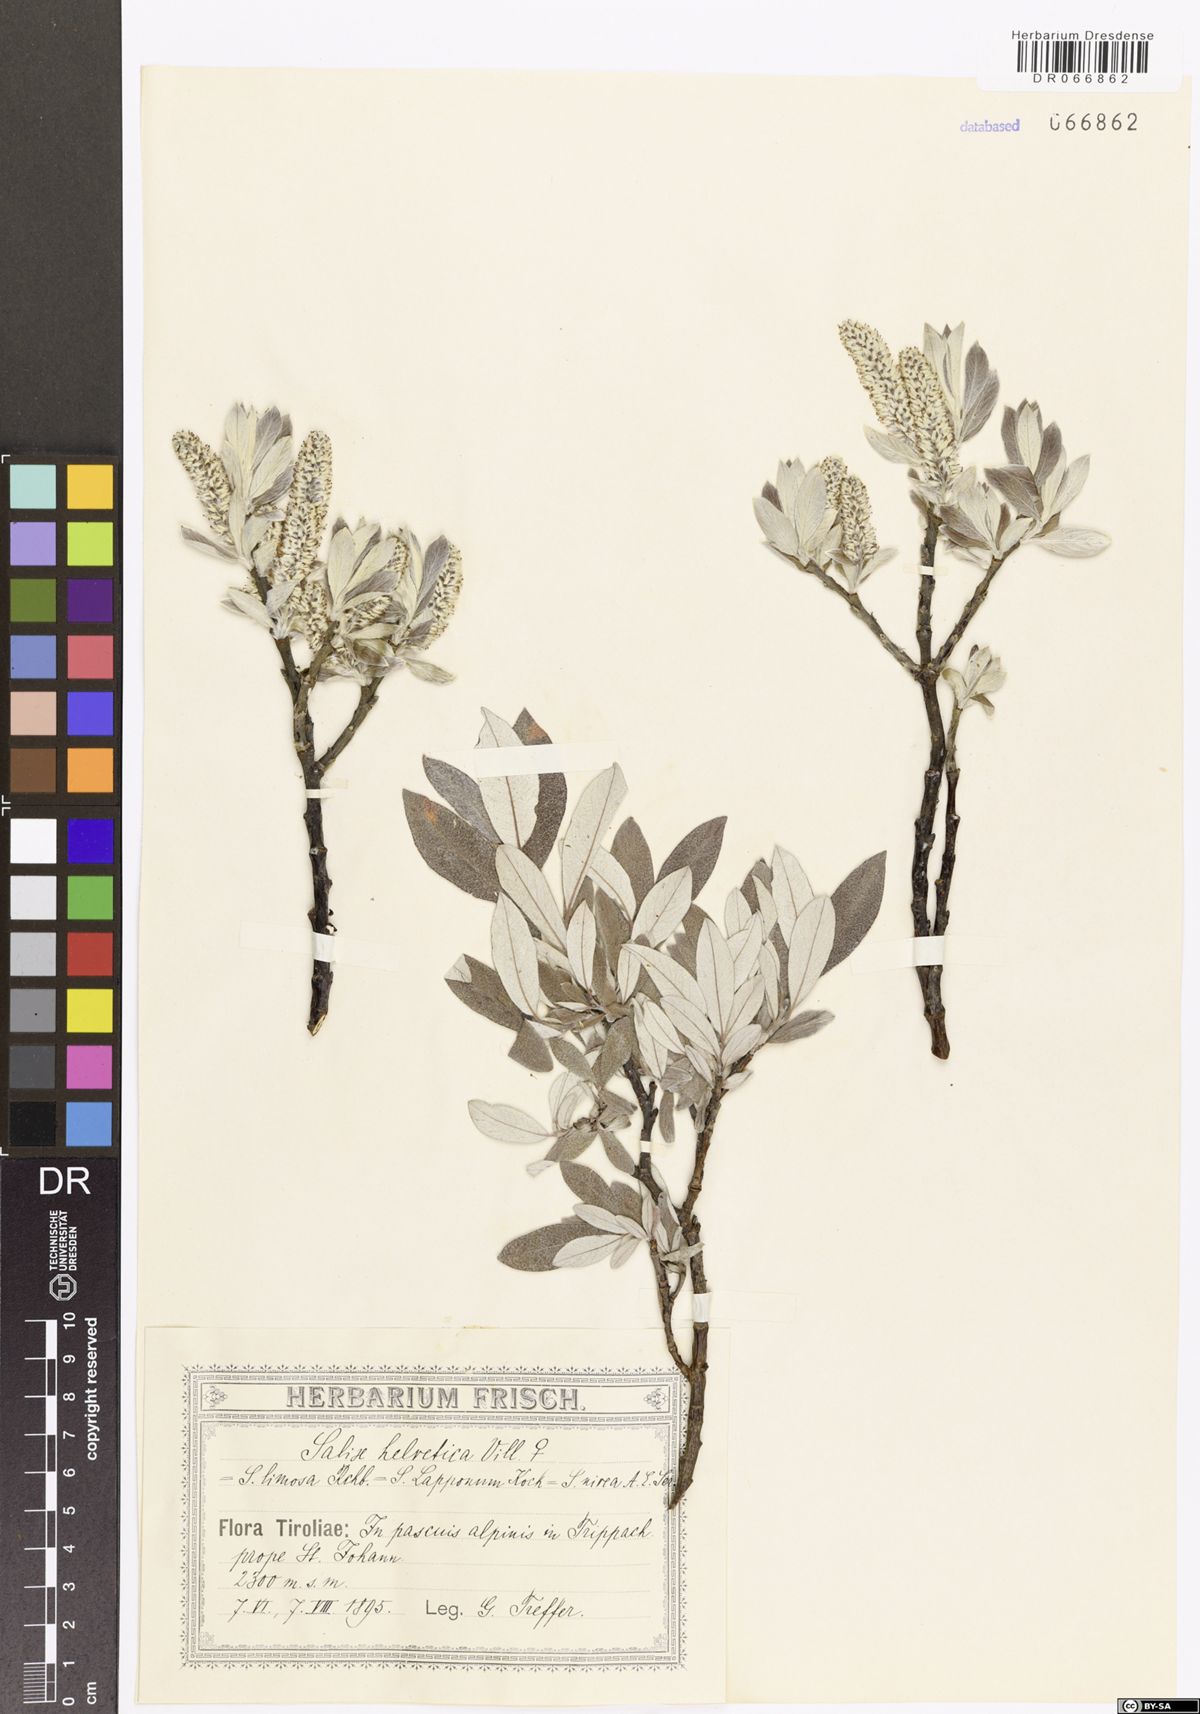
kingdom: Plantae
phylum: Tracheophyta
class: Magnoliopsida
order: Malpighiales
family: Salicaceae
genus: Salix
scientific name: Salix helvetica
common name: Swiss willow
